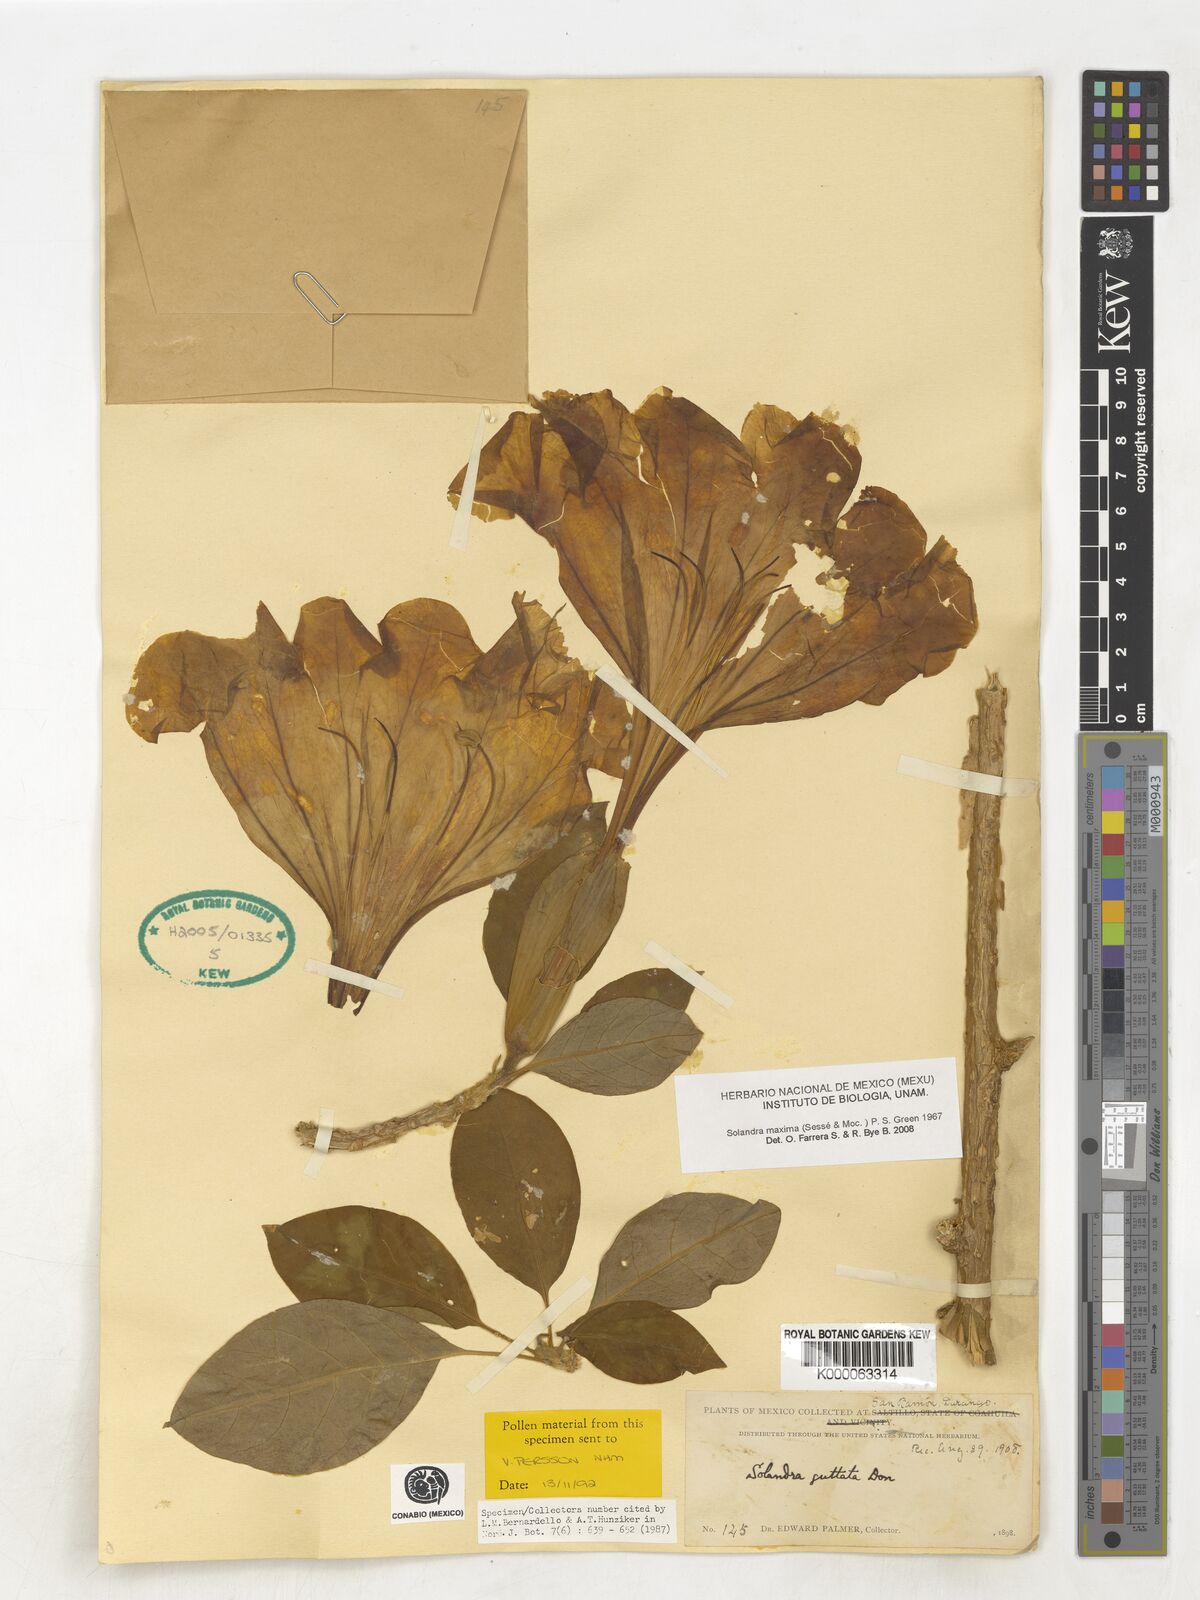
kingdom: Plantae
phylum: Tracheophyta
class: Magnoliopsida
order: Solanales
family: Solanaceae
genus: Solandra
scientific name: Solandra
